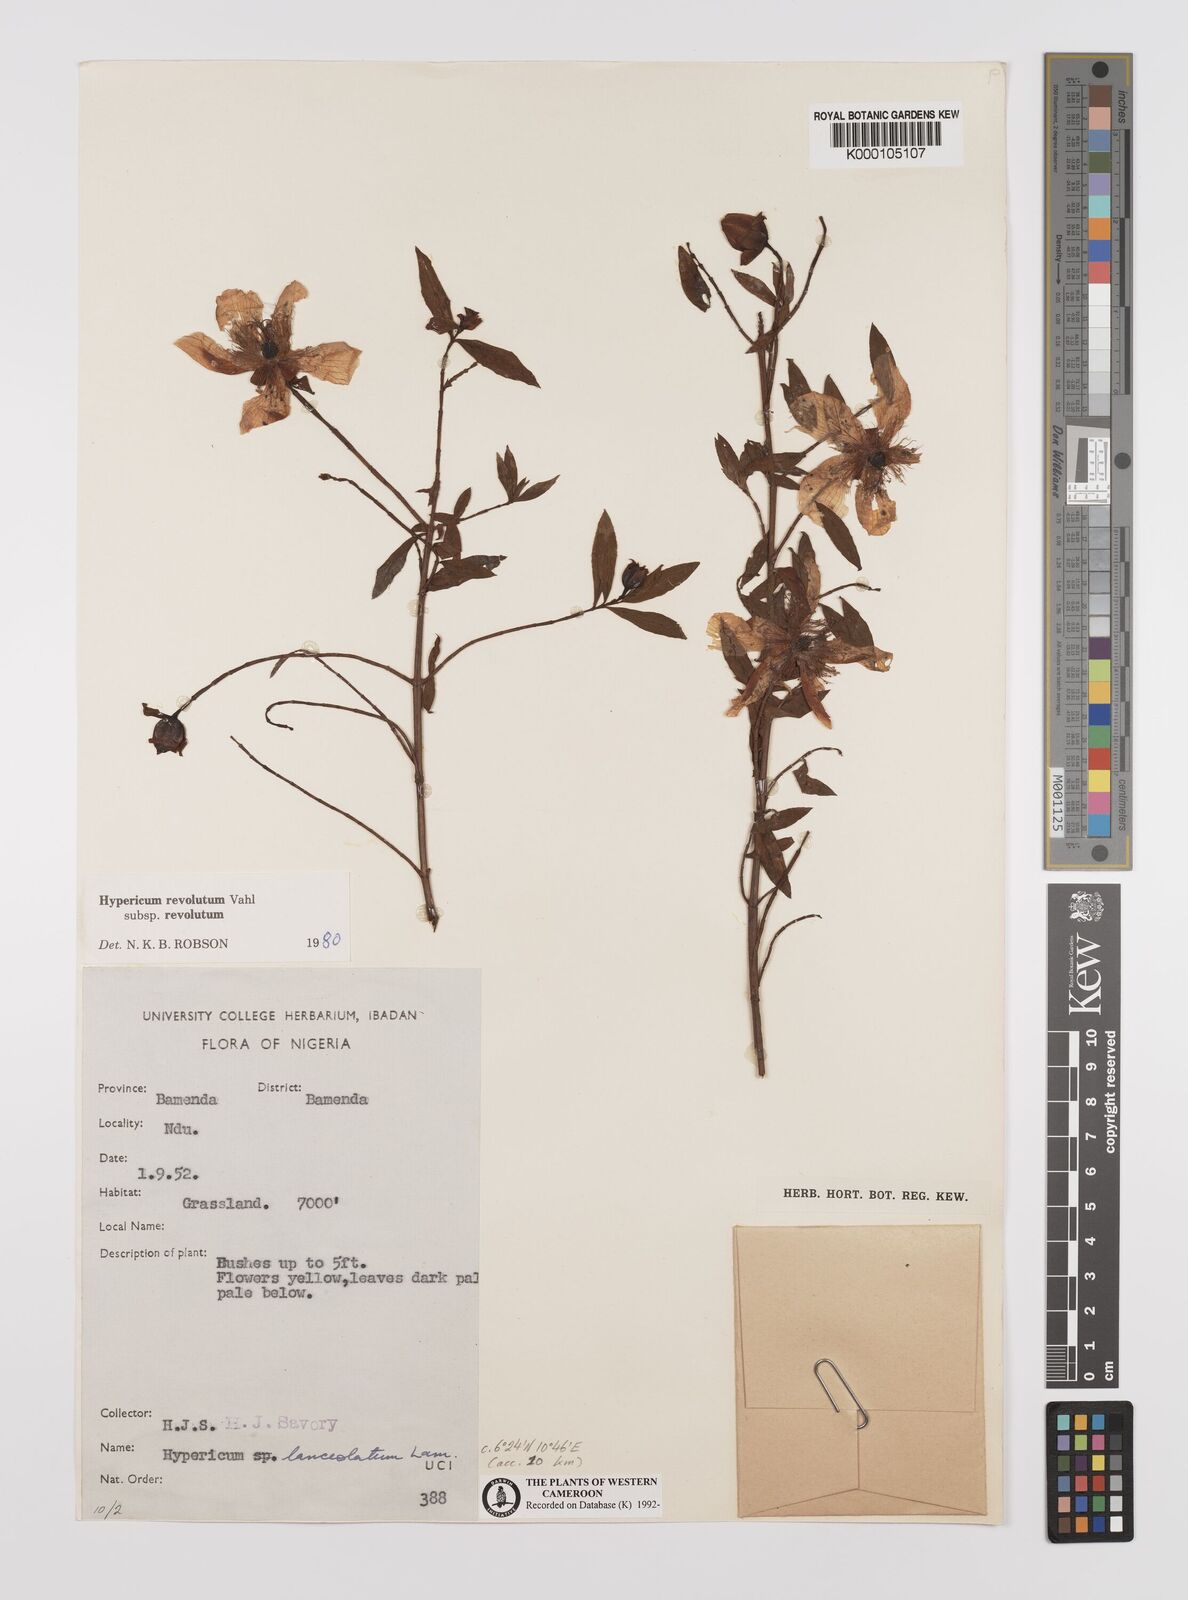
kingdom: Plantae
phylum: Tracheophyta
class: Magnoliopsida
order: Malpighiales
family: Hypericaceae
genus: Hypericum
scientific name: Hypericum revolutum
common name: Curry bush
